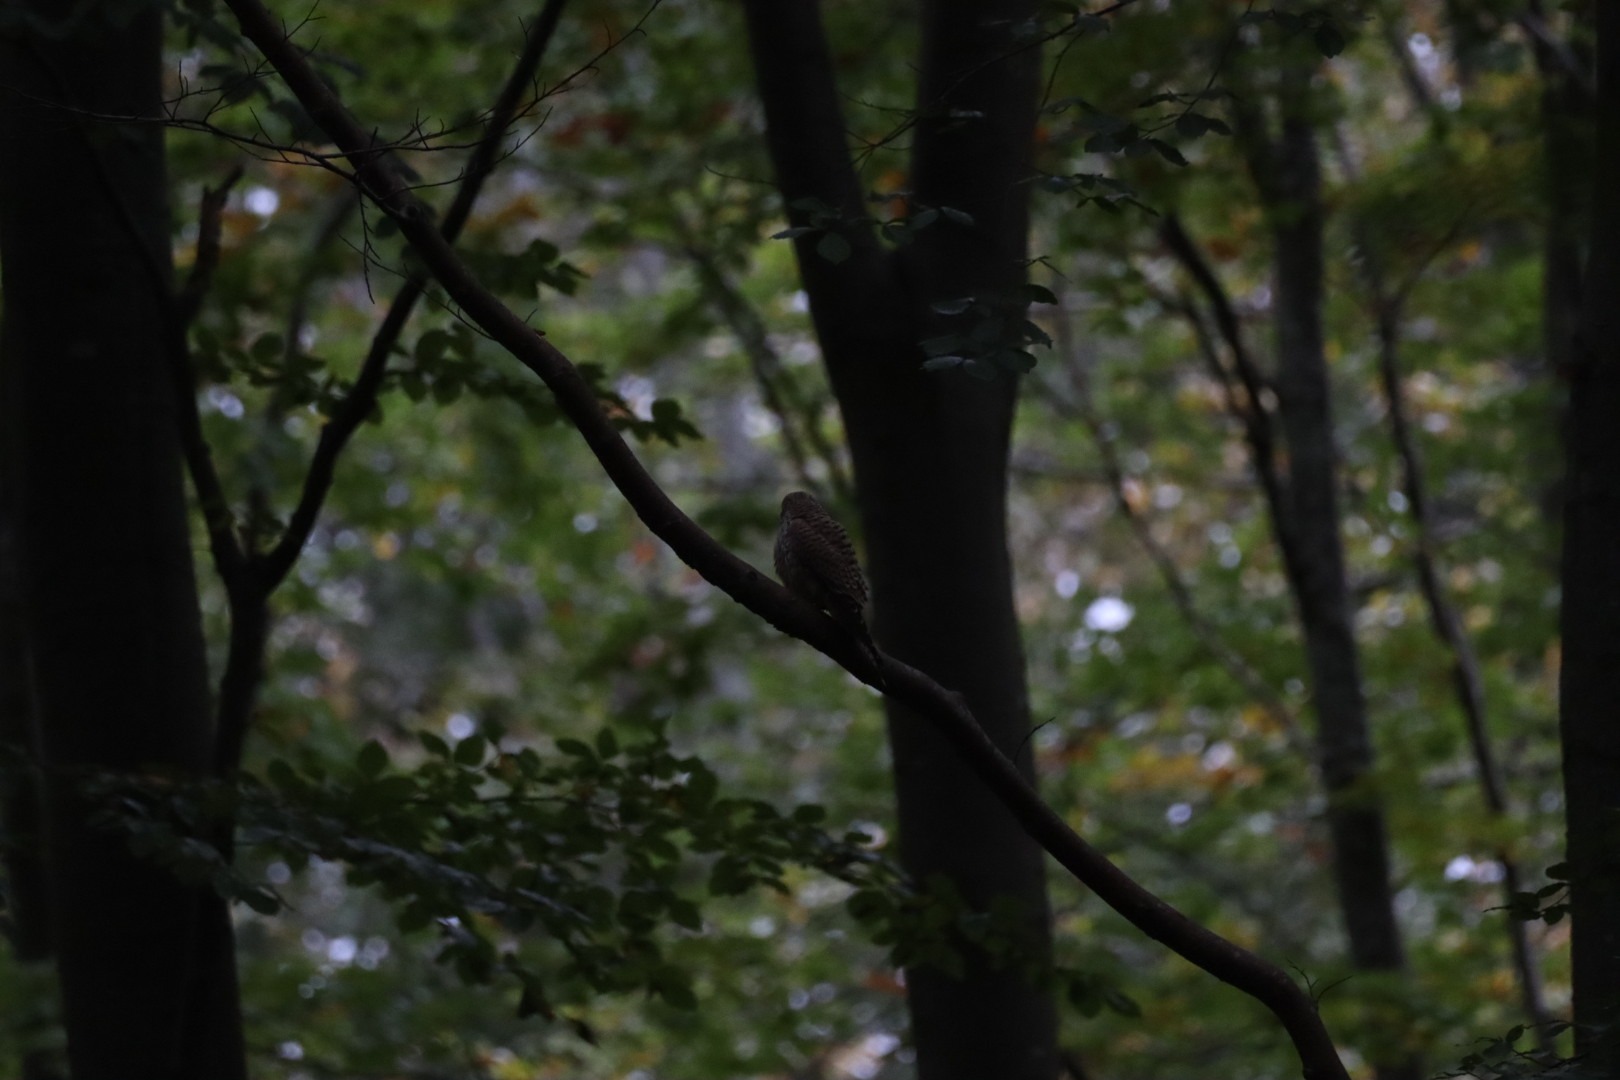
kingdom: Animalia
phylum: Chordata
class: Aves
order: Falconiformes
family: Falconidae
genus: Falco
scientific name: Falco tinnunculus
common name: Tårnfalk
